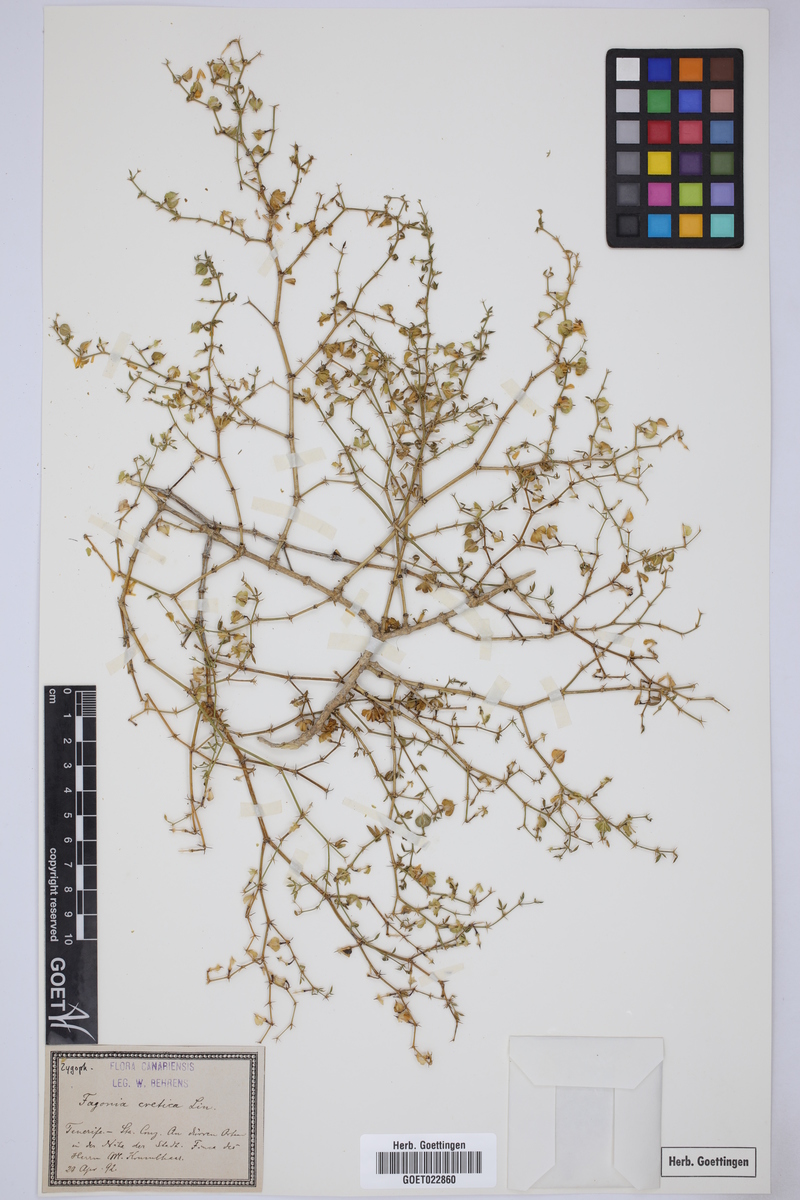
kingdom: Plantae
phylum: Tracheophyta
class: Magnoliopsida
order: Zygophyllales
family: Zygophyllaceae
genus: Fagonia
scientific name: Fagonia cretica
